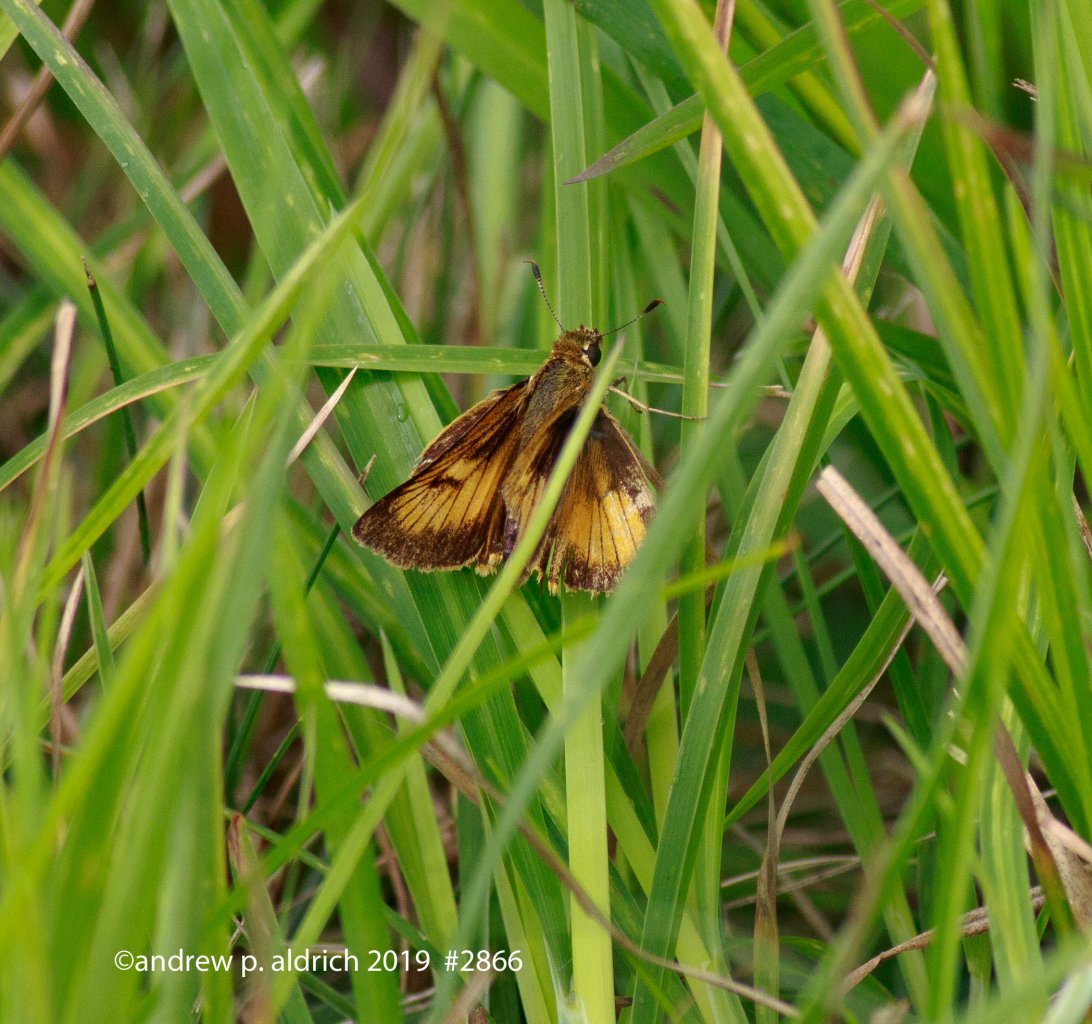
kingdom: Animalia
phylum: Arthropoda
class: Insecta
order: Lepidoptera
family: Hesperiidae
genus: Atrytone
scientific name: Atrytone delaware
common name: Delaware Skipper
